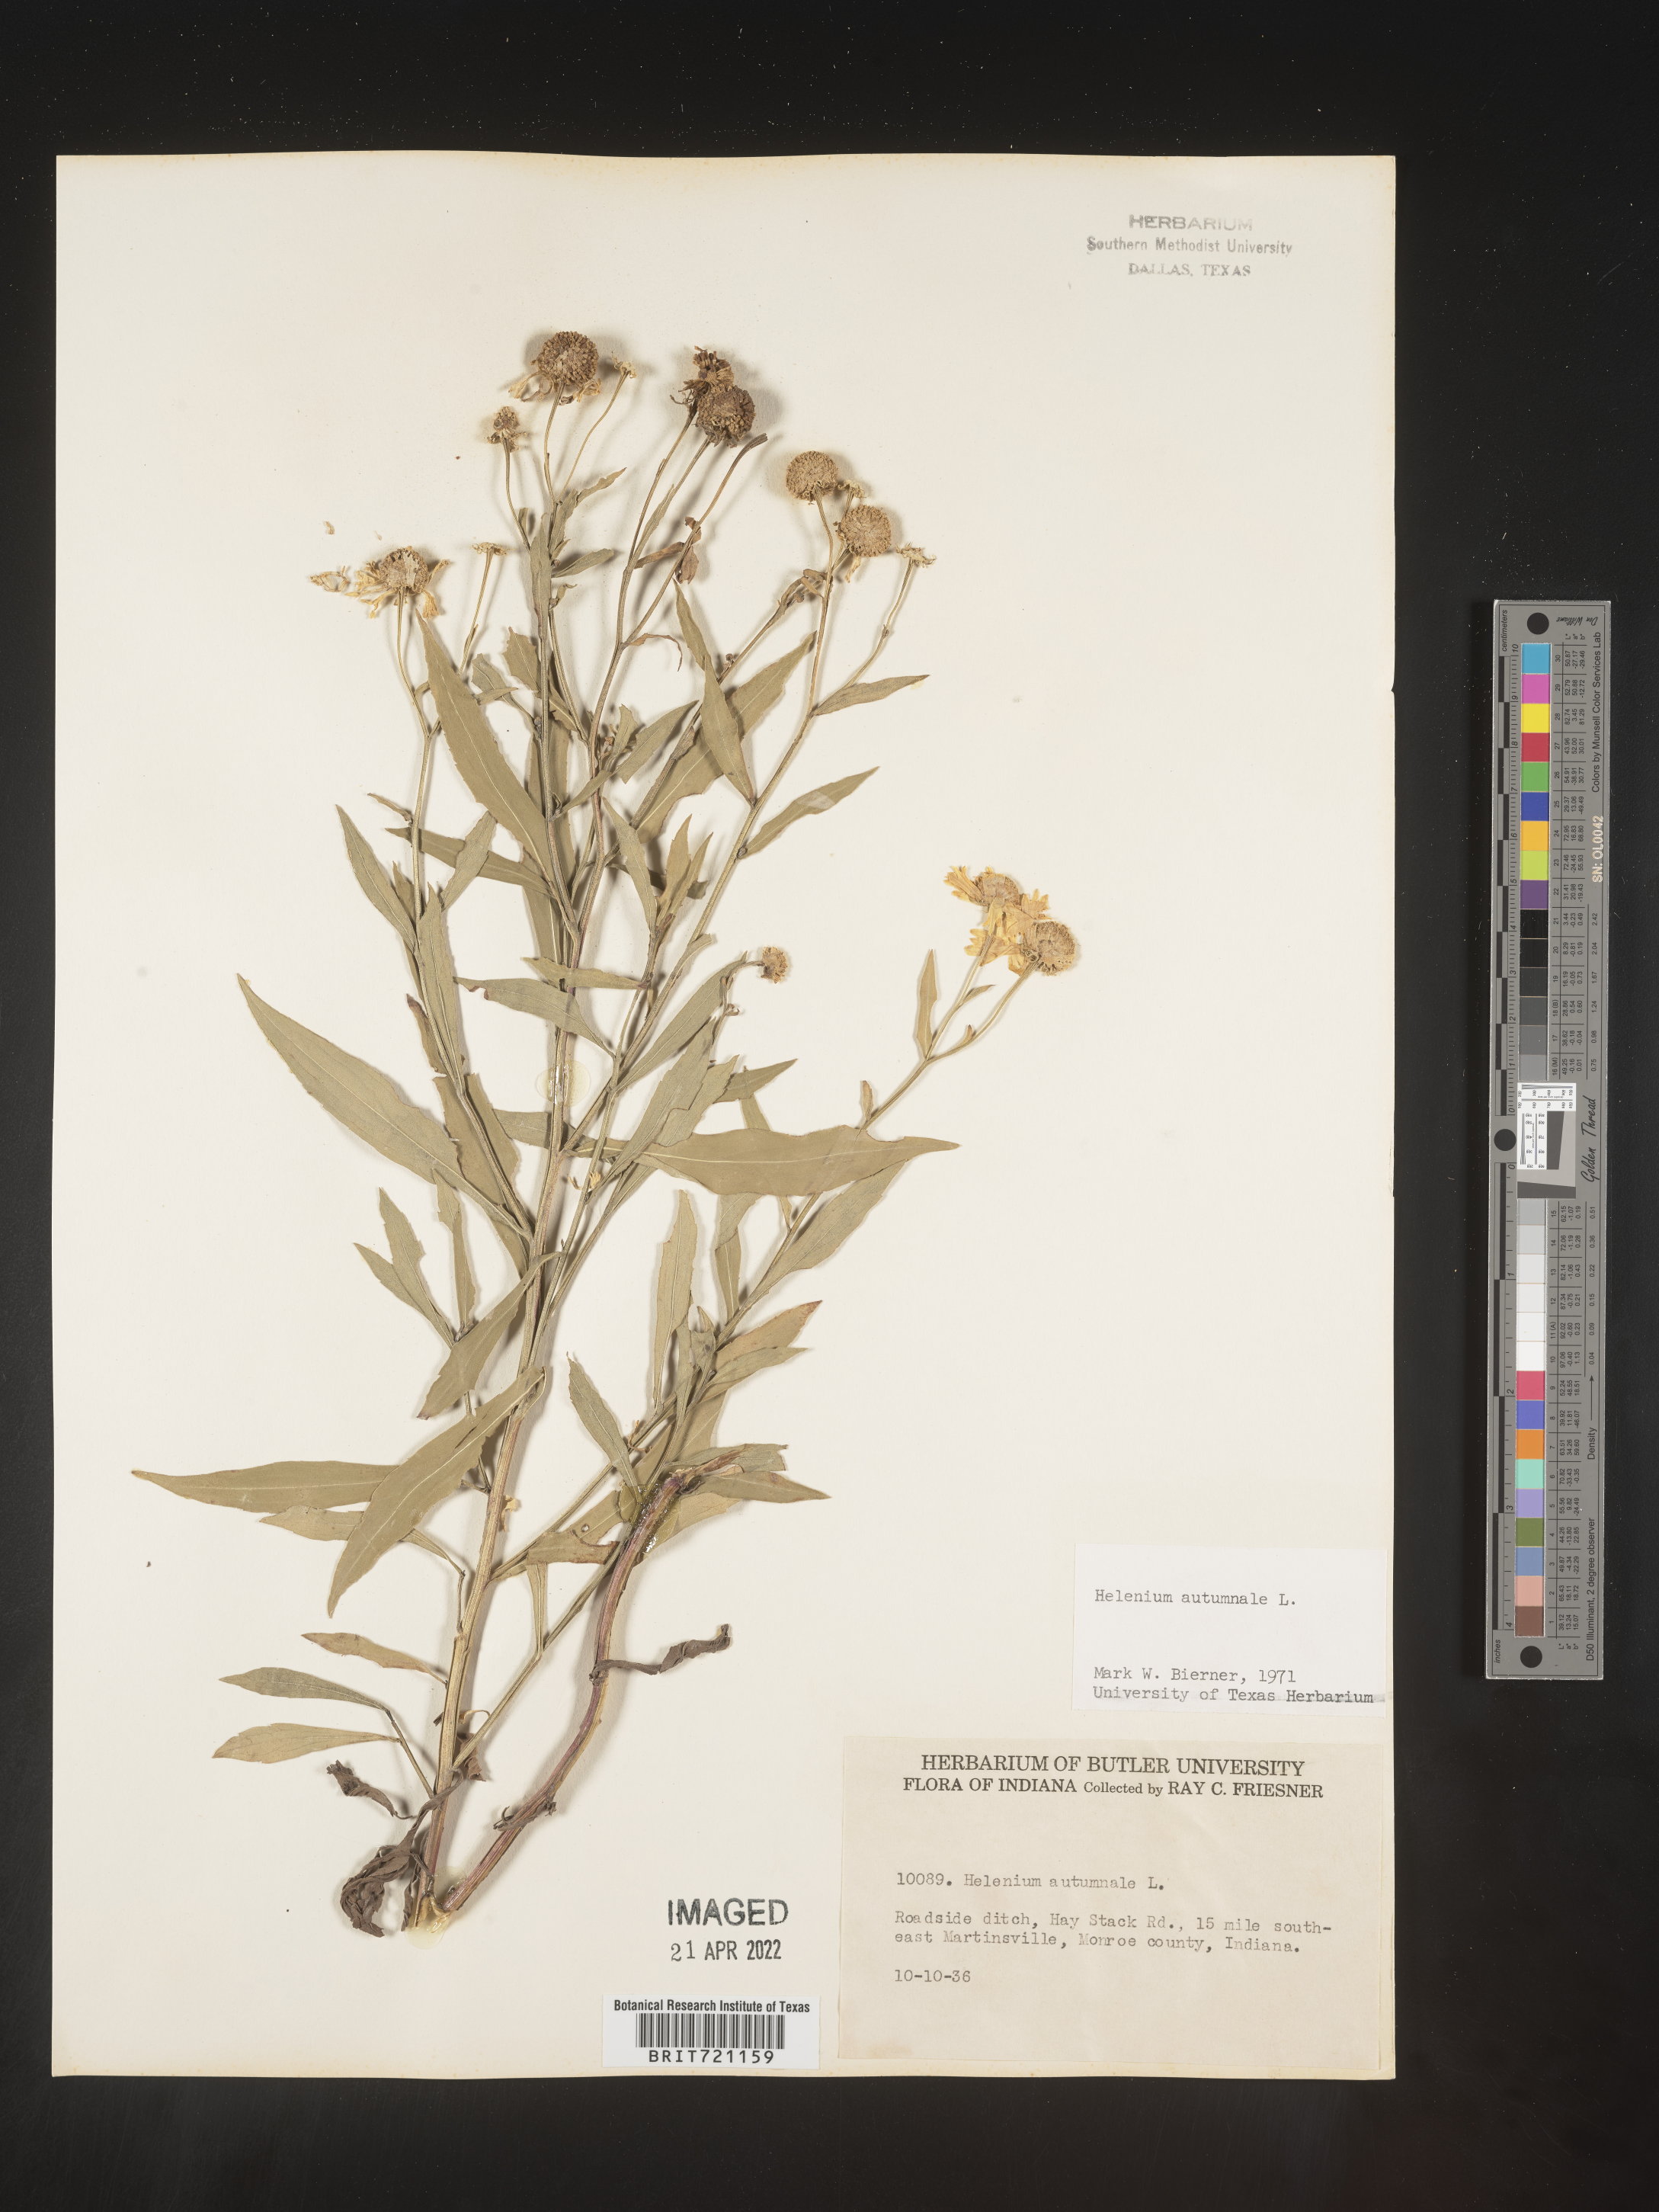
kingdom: Plantae
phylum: Tracheophyta
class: Magnoliopsida
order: Asterales
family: Asteraceae
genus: Helenium
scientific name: Helenium autumnale
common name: Sneezeweed
